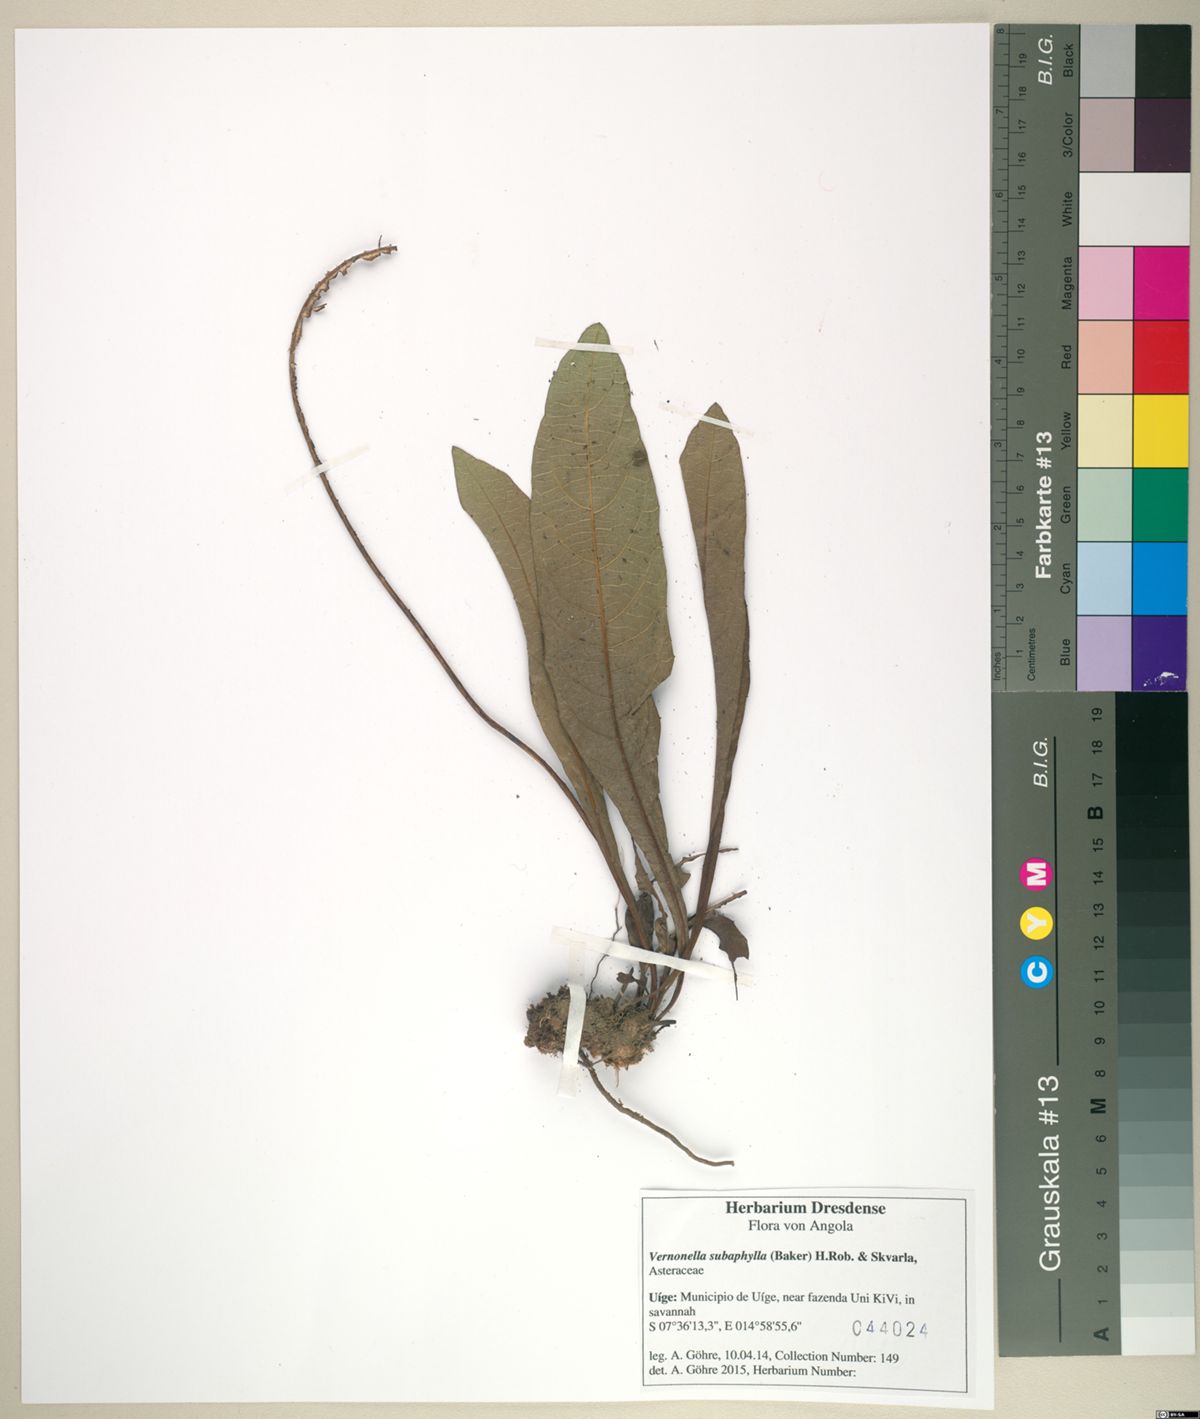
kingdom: Plantae
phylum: Tracheophyta
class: Magnoliopsida
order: Asterales
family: Asteraceae
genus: Vernonella
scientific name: Vernonella subaphylla
